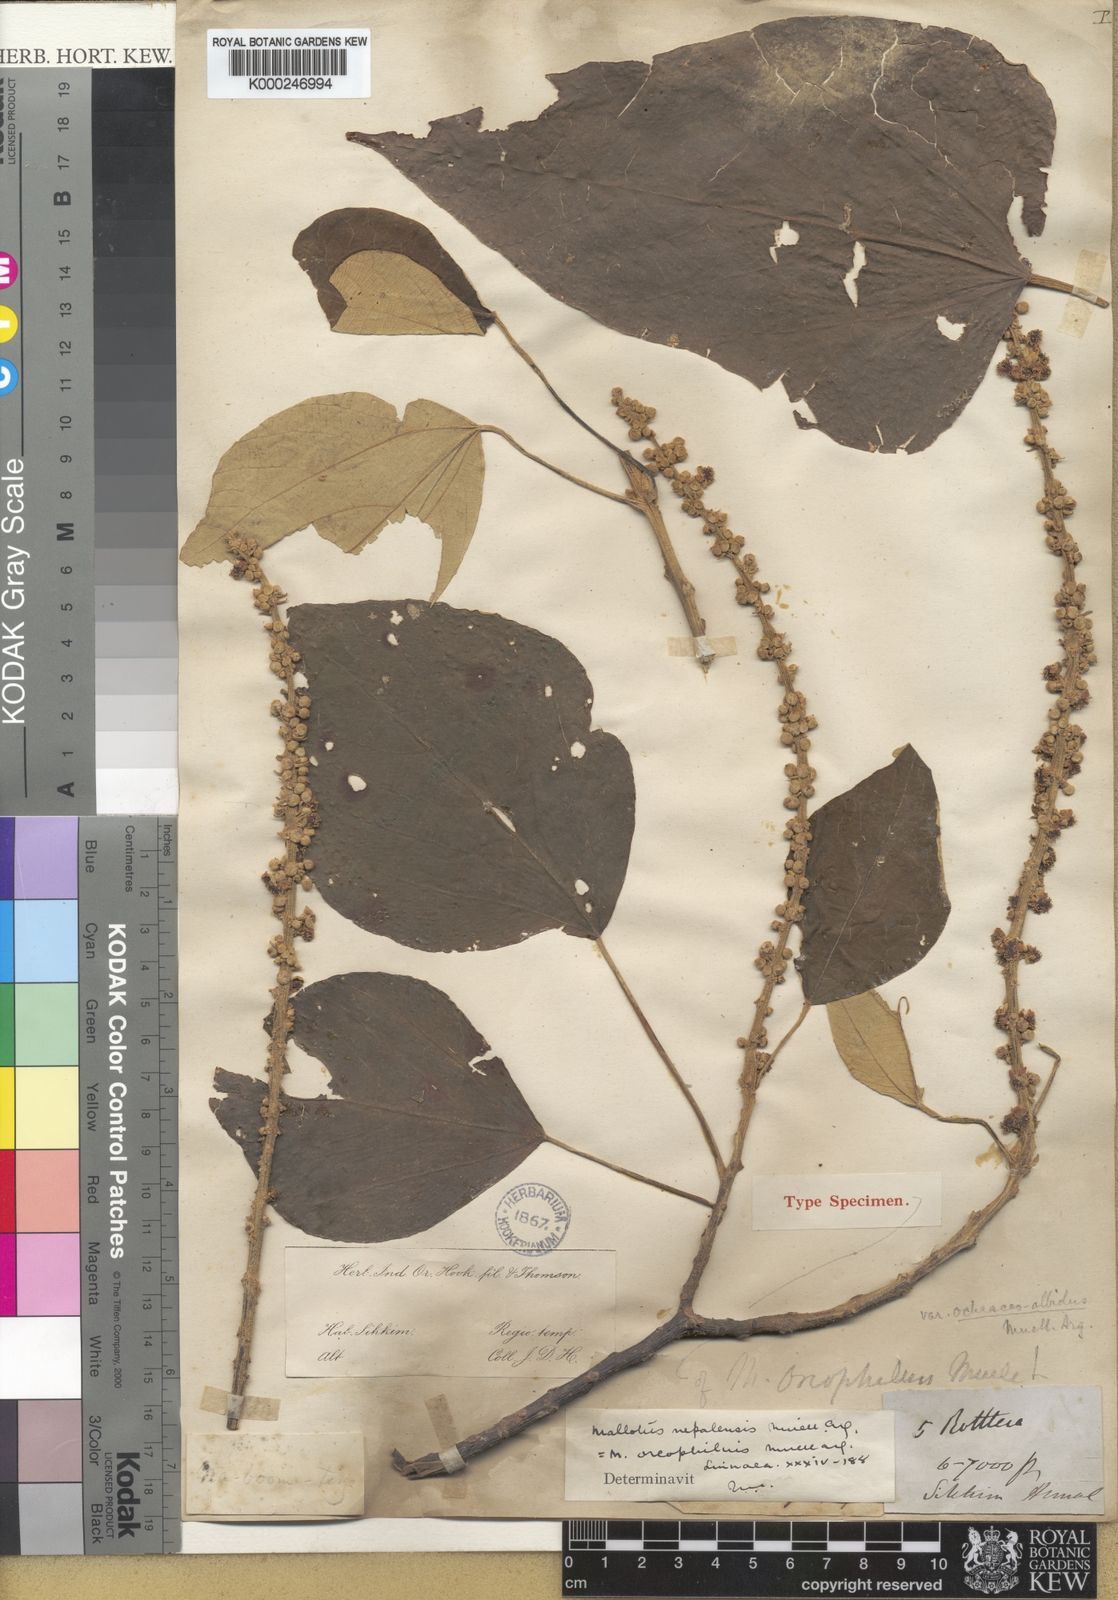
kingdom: Plantae
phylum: Tracheophyta
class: Magnoliopsida
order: Malpighiales
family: Euphorbiaceae
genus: Mallotus
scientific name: Mallotus
